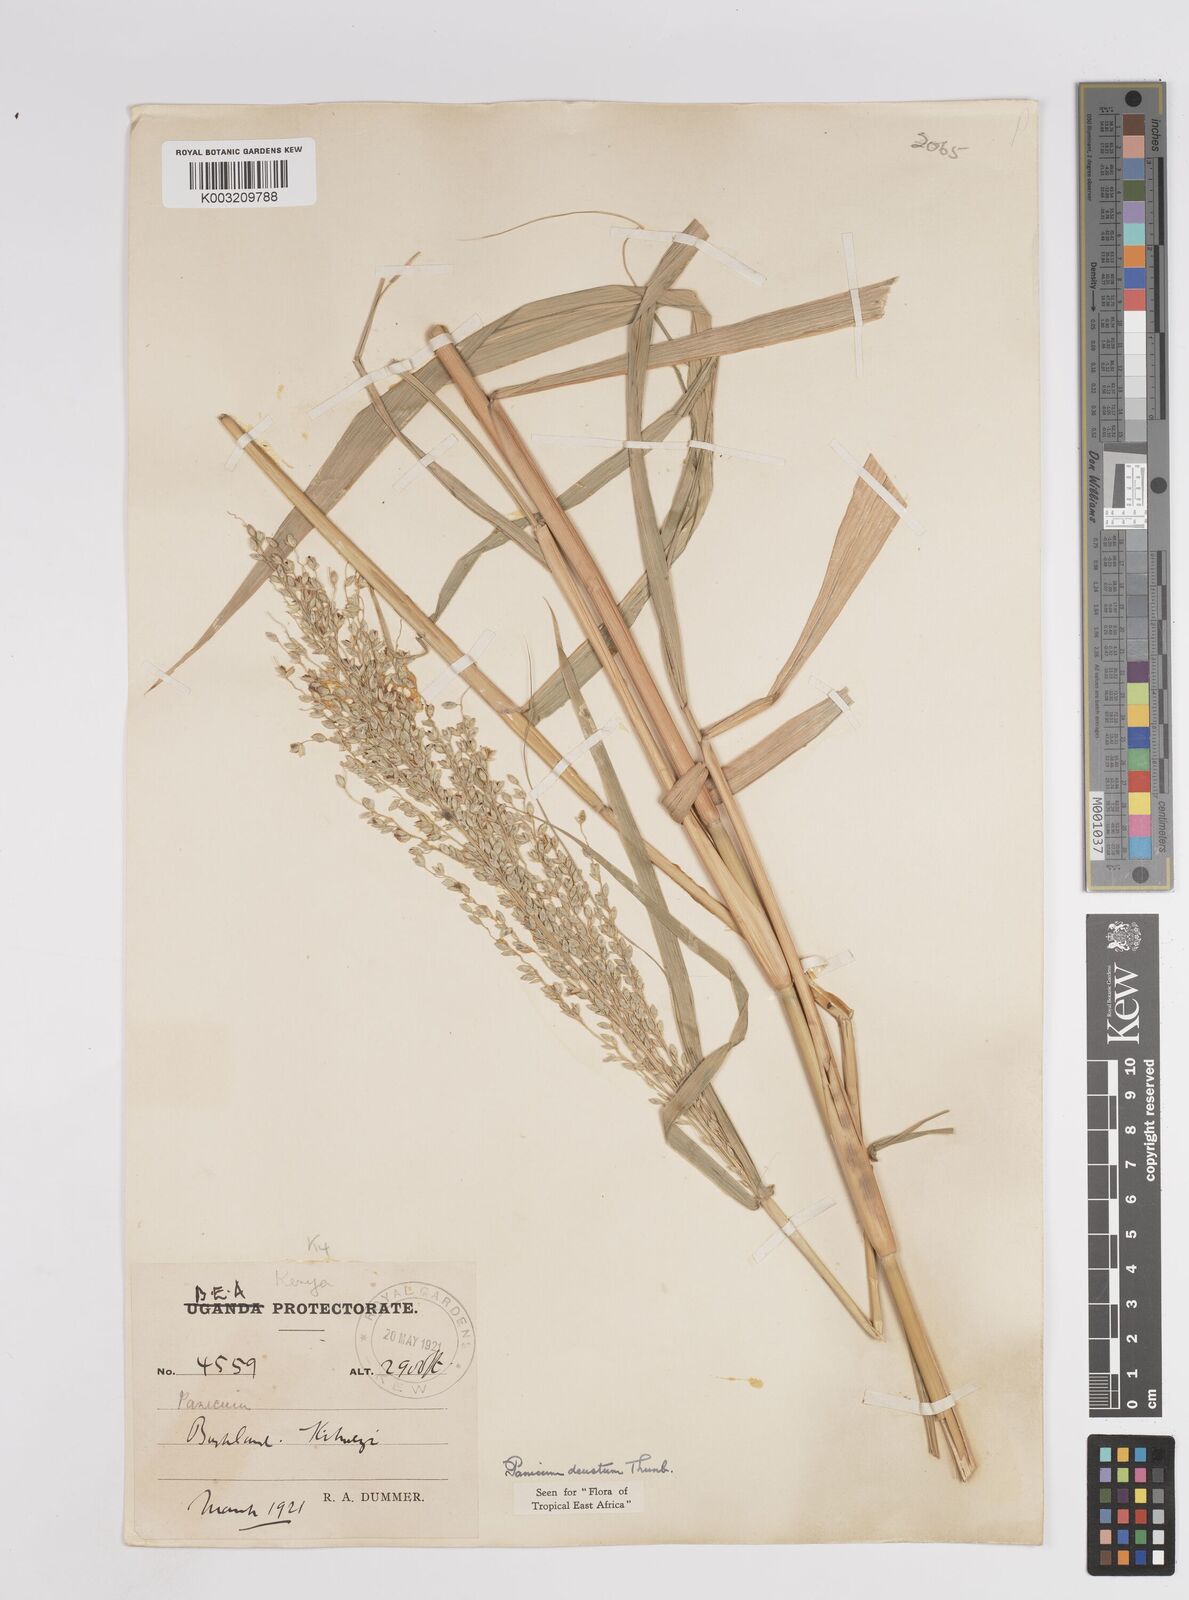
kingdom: Plantae
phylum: Tracheophyta
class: Liliopsida
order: Poales
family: Poaceae
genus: Panicum
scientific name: Panicum deustum
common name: Reed panicum
